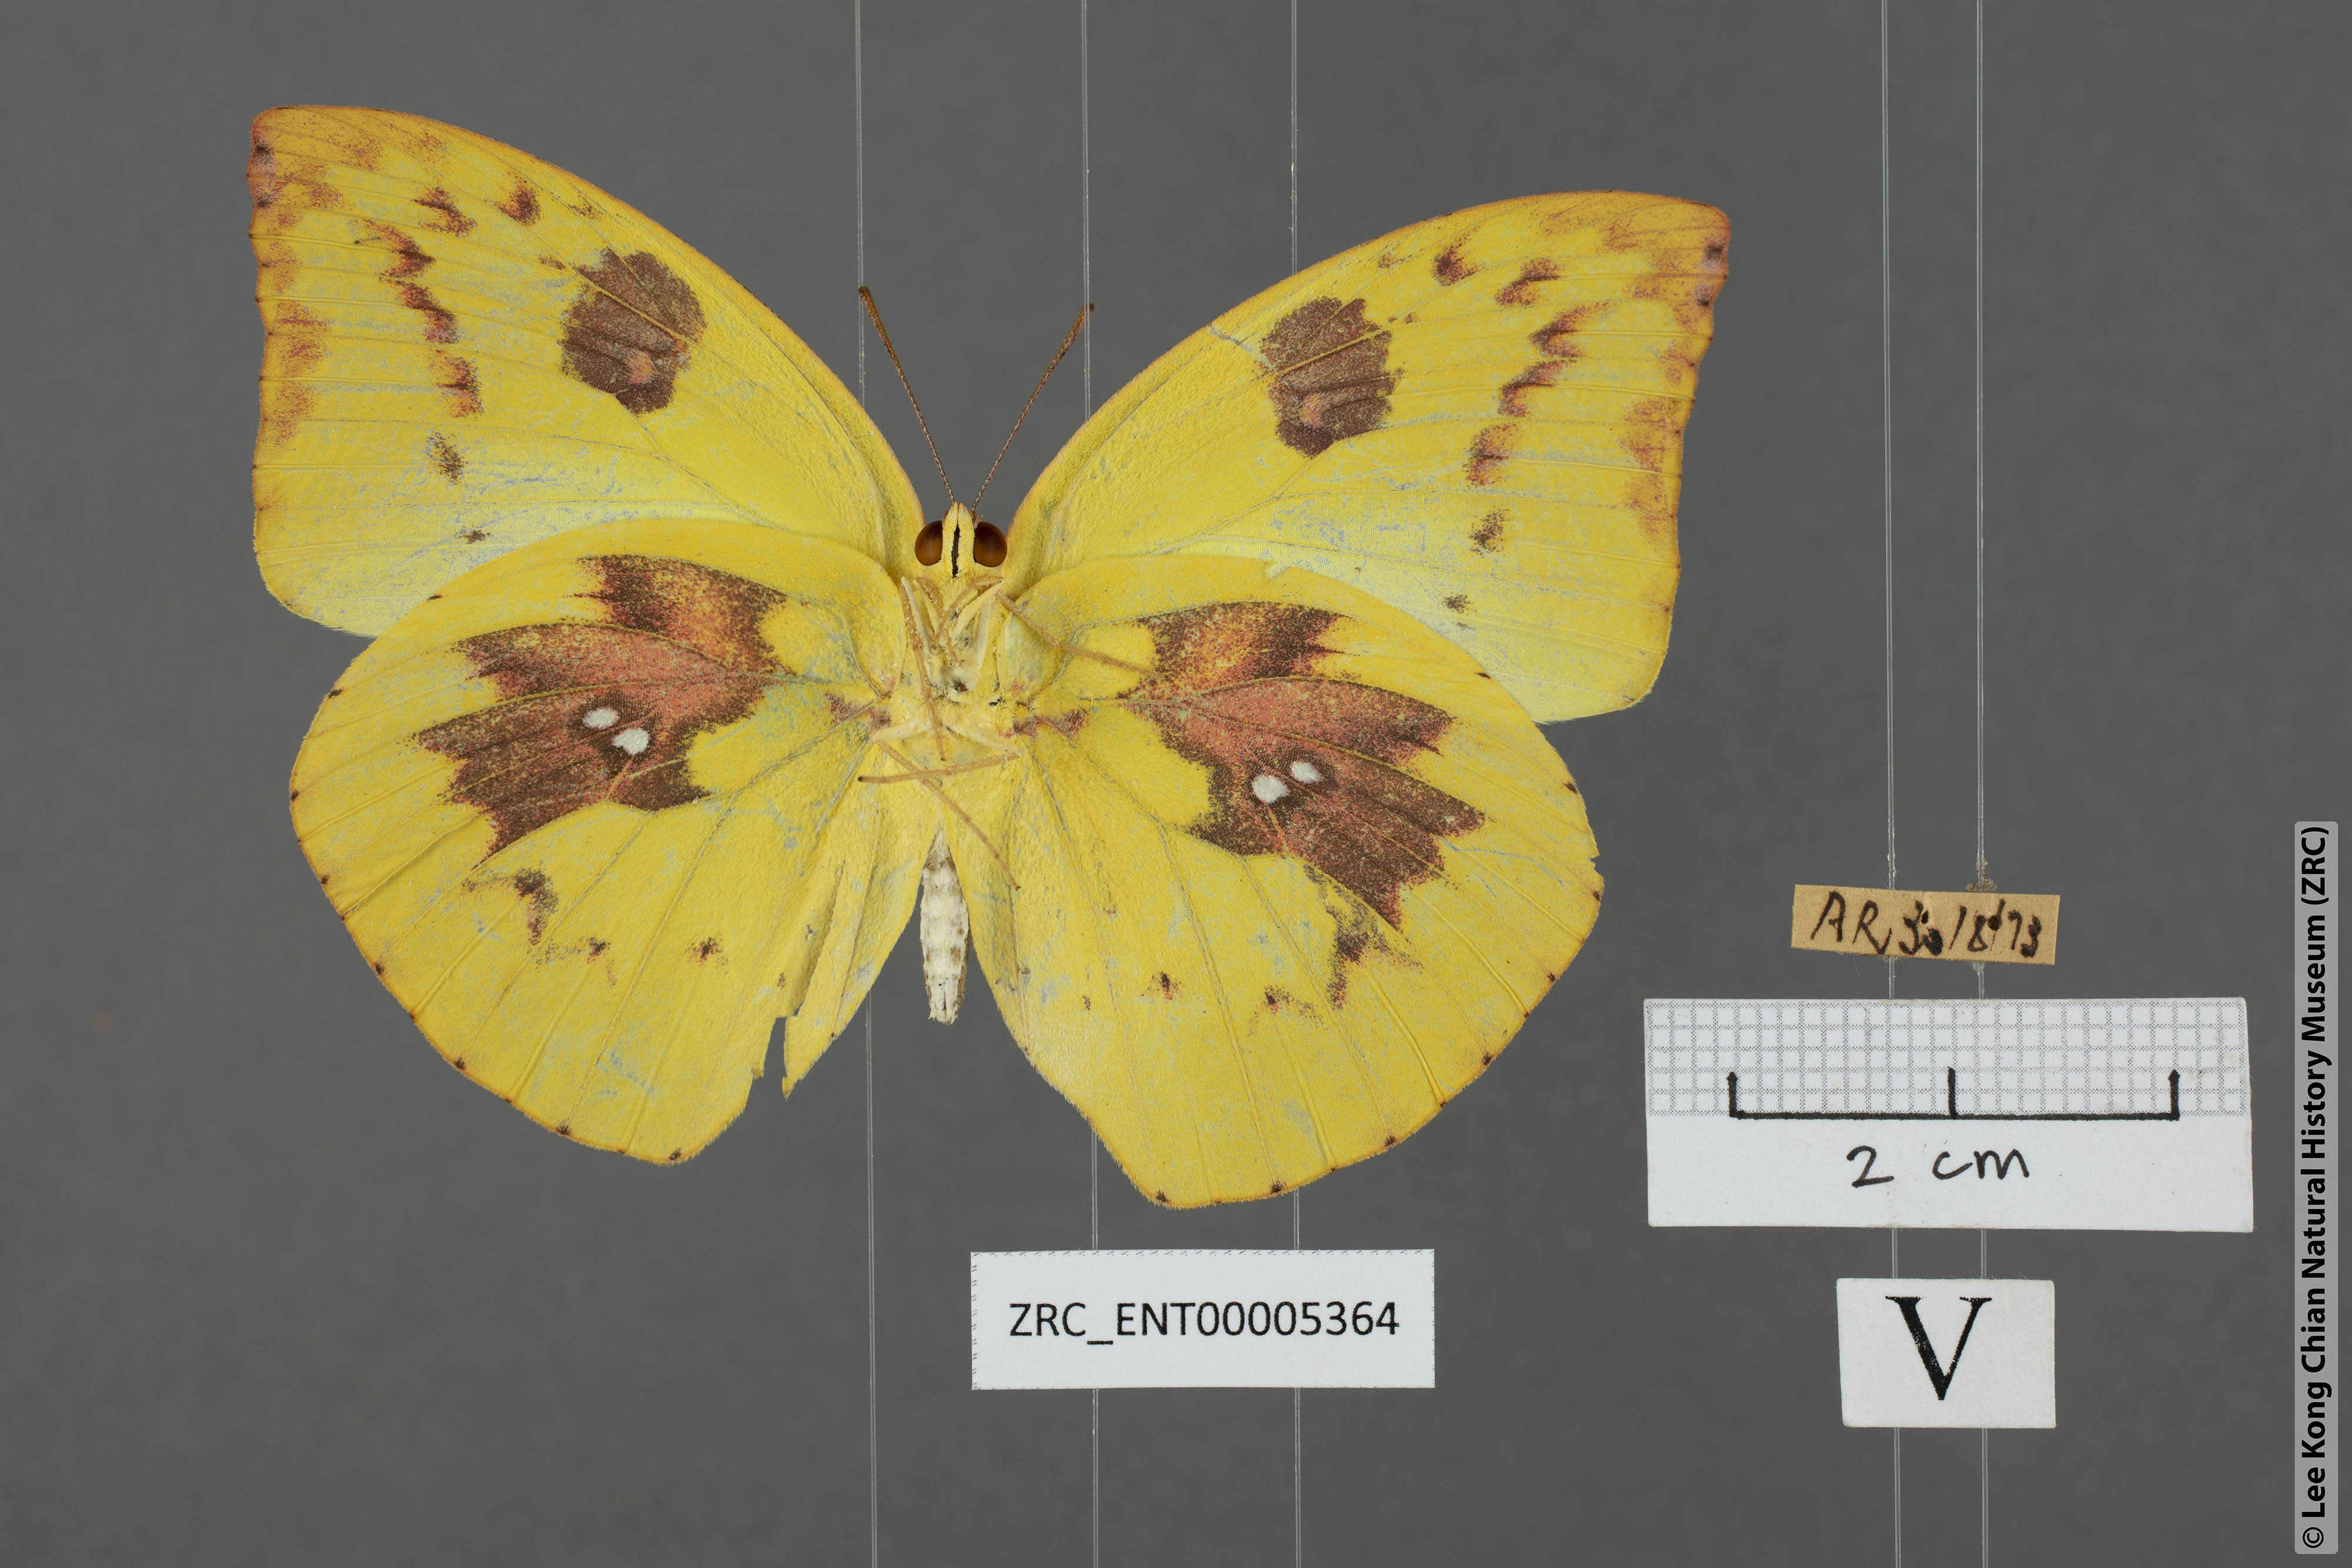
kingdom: Animalia
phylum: Arthropoda
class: Insecta
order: Lepidoptera
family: Pieridae
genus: Catopsilia
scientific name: Catopsilia pomona
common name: Common emigrant
